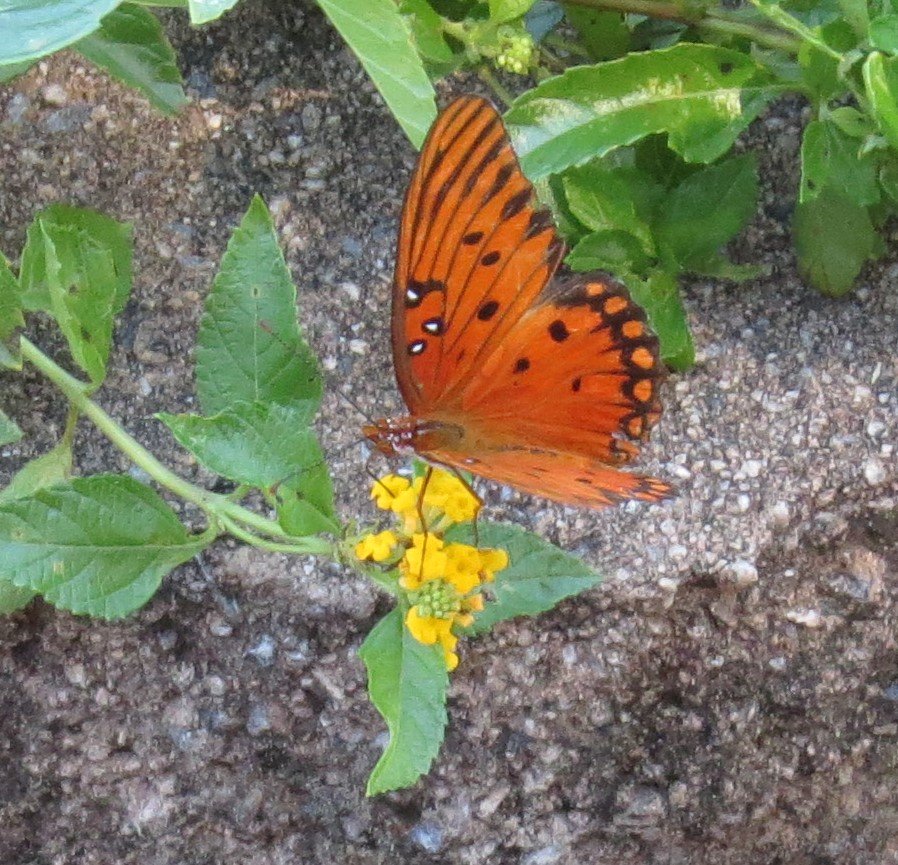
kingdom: Animalia
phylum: Arthropoda
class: Insecta
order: Lepidoptera
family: Nymphalidae
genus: Dione
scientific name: Dione vanillae
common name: Gulf Fritillary
